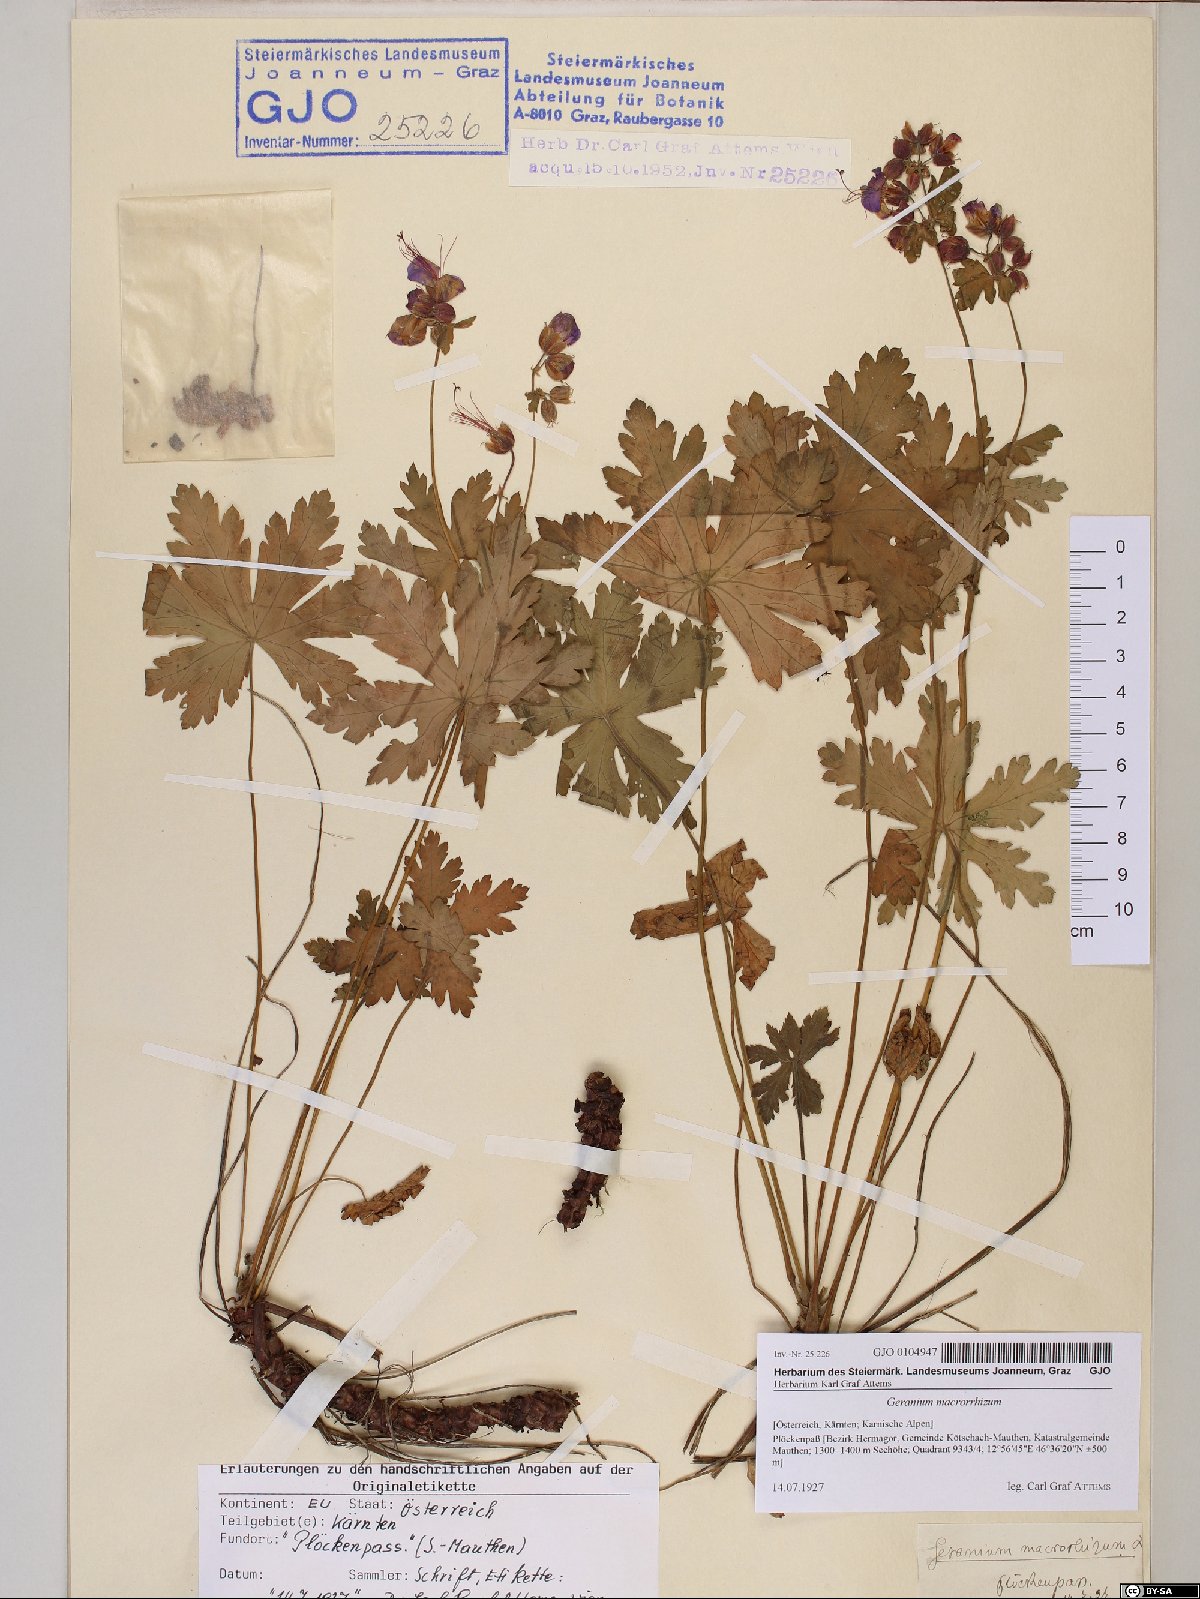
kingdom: Plantae
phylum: Tracheophyta
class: Magnoliopsida
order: Geraniales
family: Geraniaceae
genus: Geranium
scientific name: Geranium macrorrhizum
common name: Rock crane's-bill
